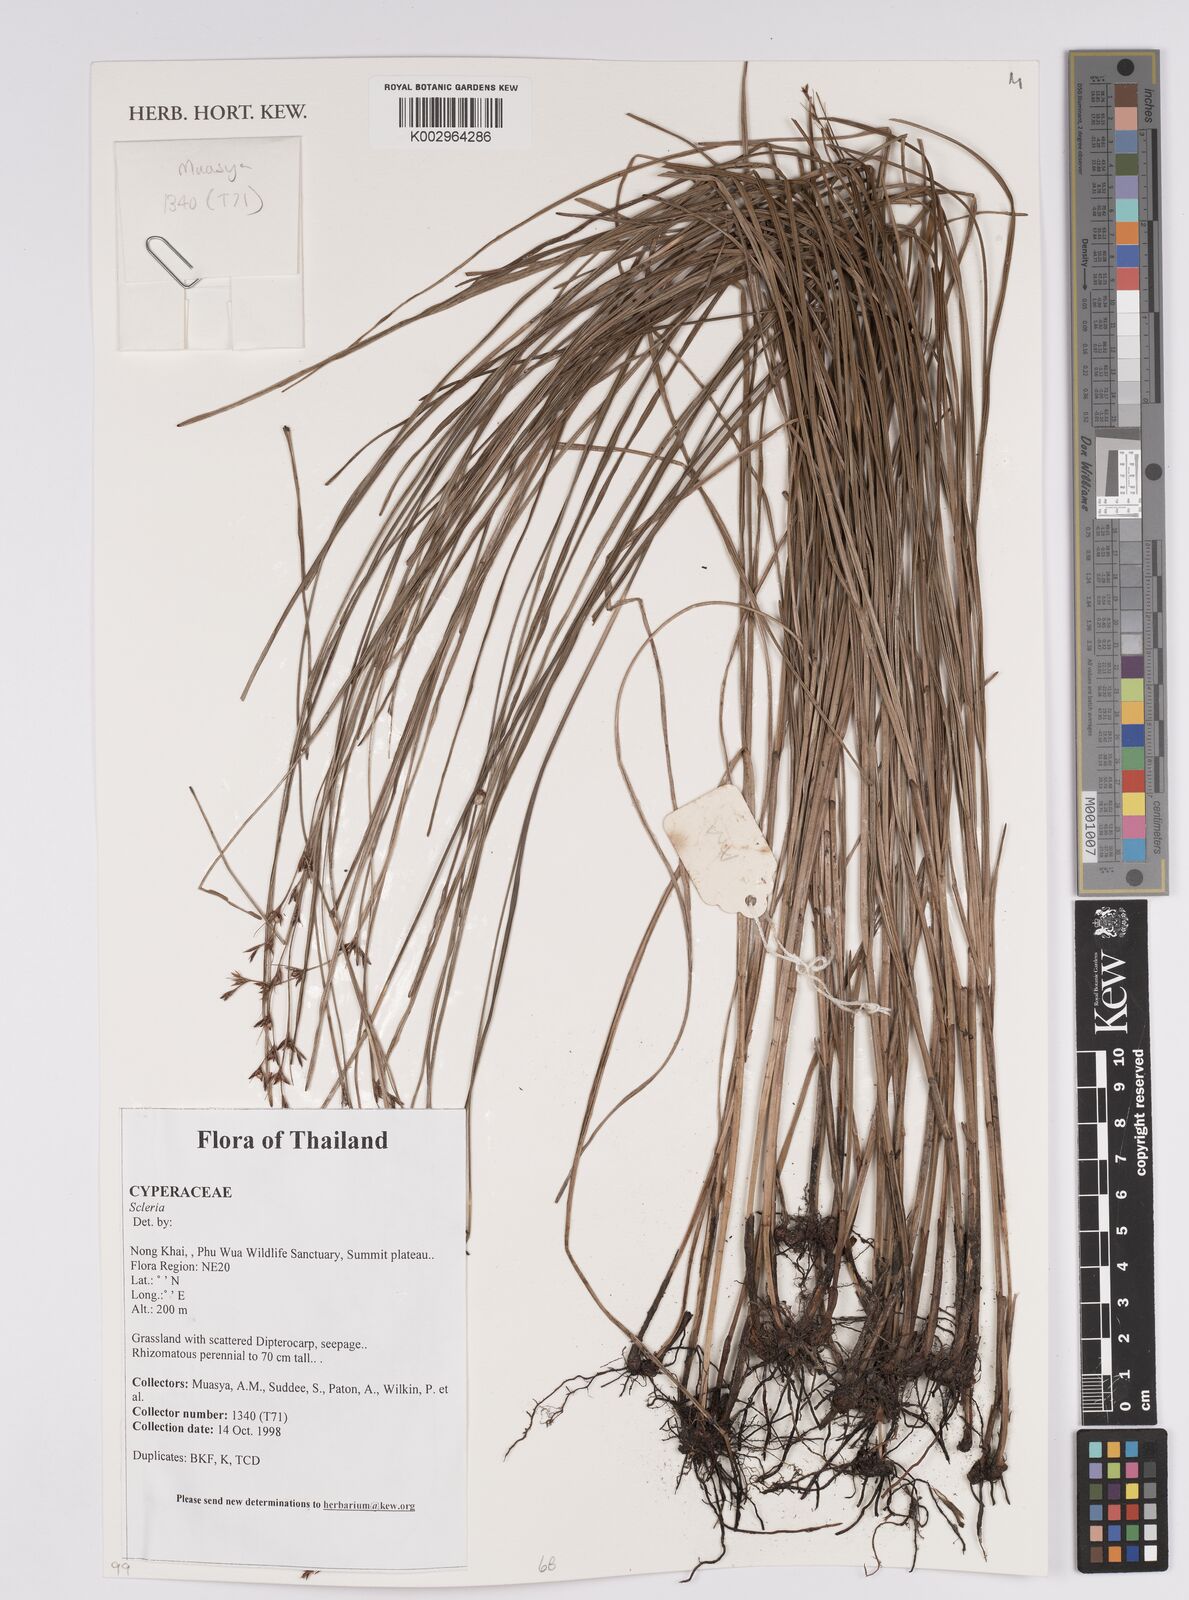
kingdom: Plantae
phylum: Tracheophyta
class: Liliopsida
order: Poales
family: Cyperaceae
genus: Scleria
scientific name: Scleria
